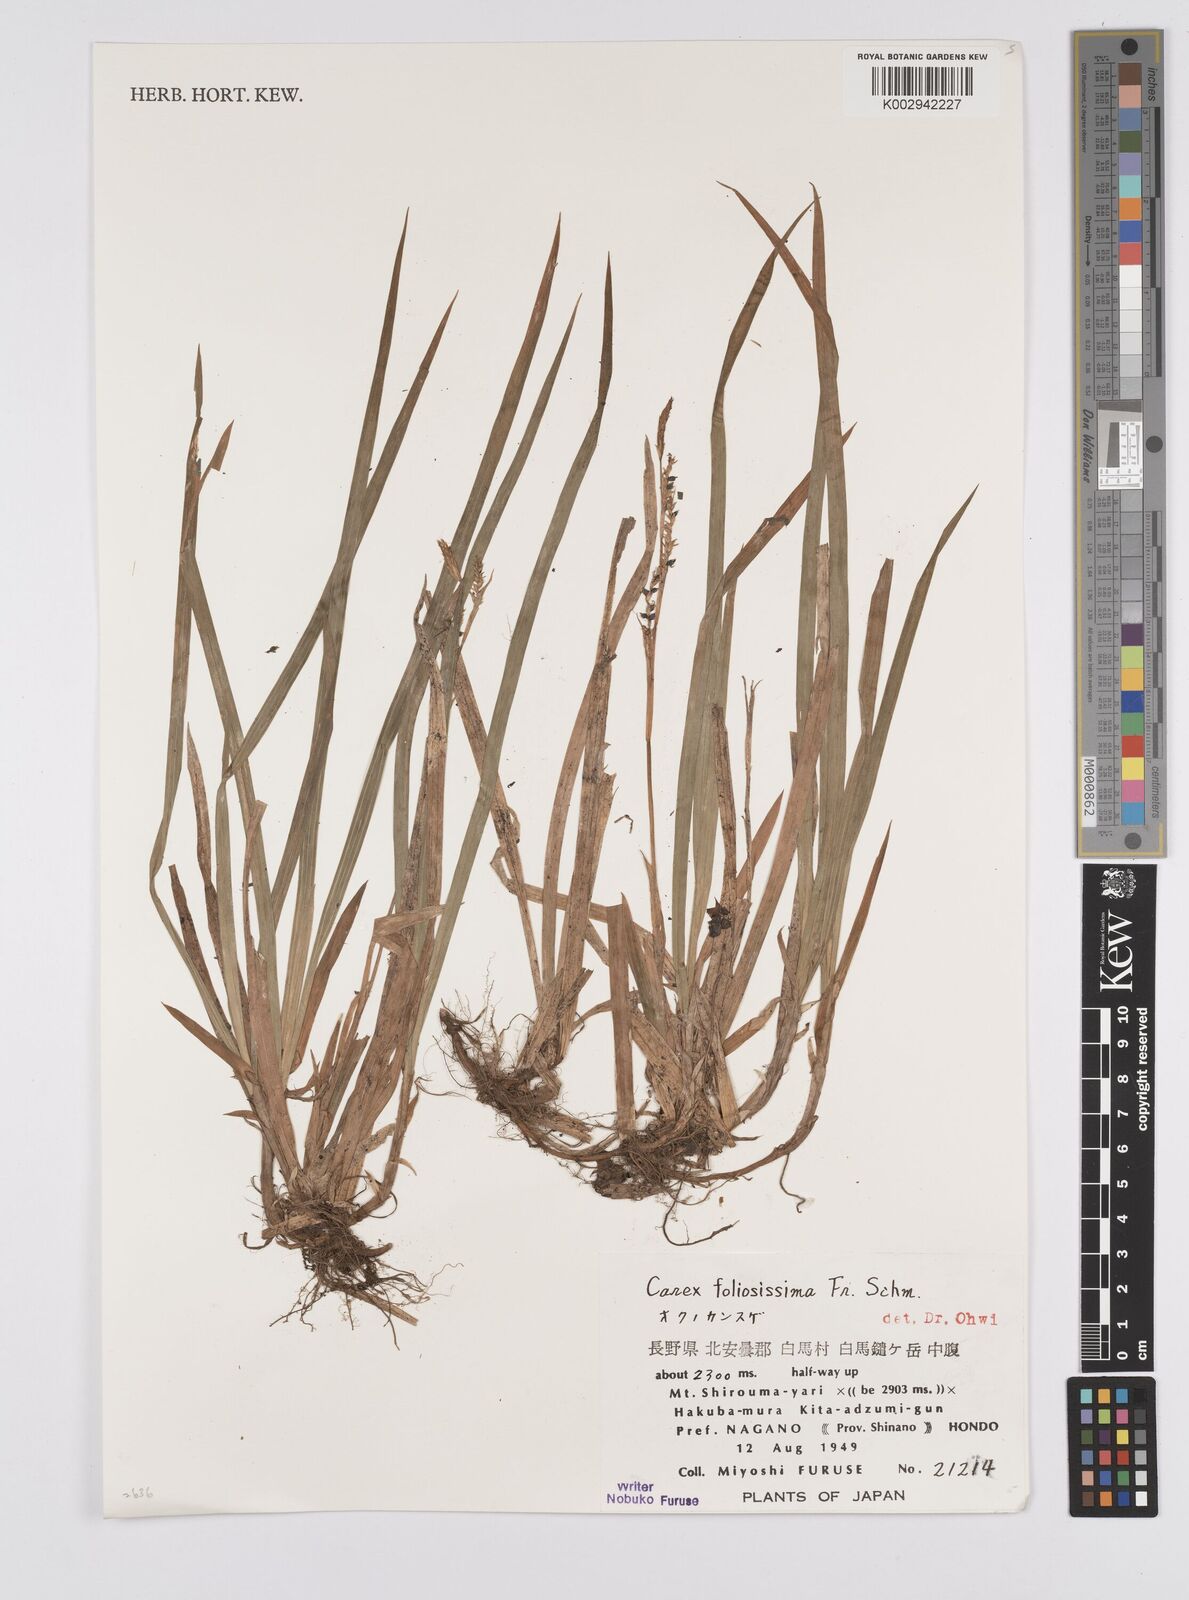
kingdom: Plantae
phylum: Tracheophyta
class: Liliopsida
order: Poales
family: Cyperaceae
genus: Carex
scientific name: Carex morrowii
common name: Japanese sedge
